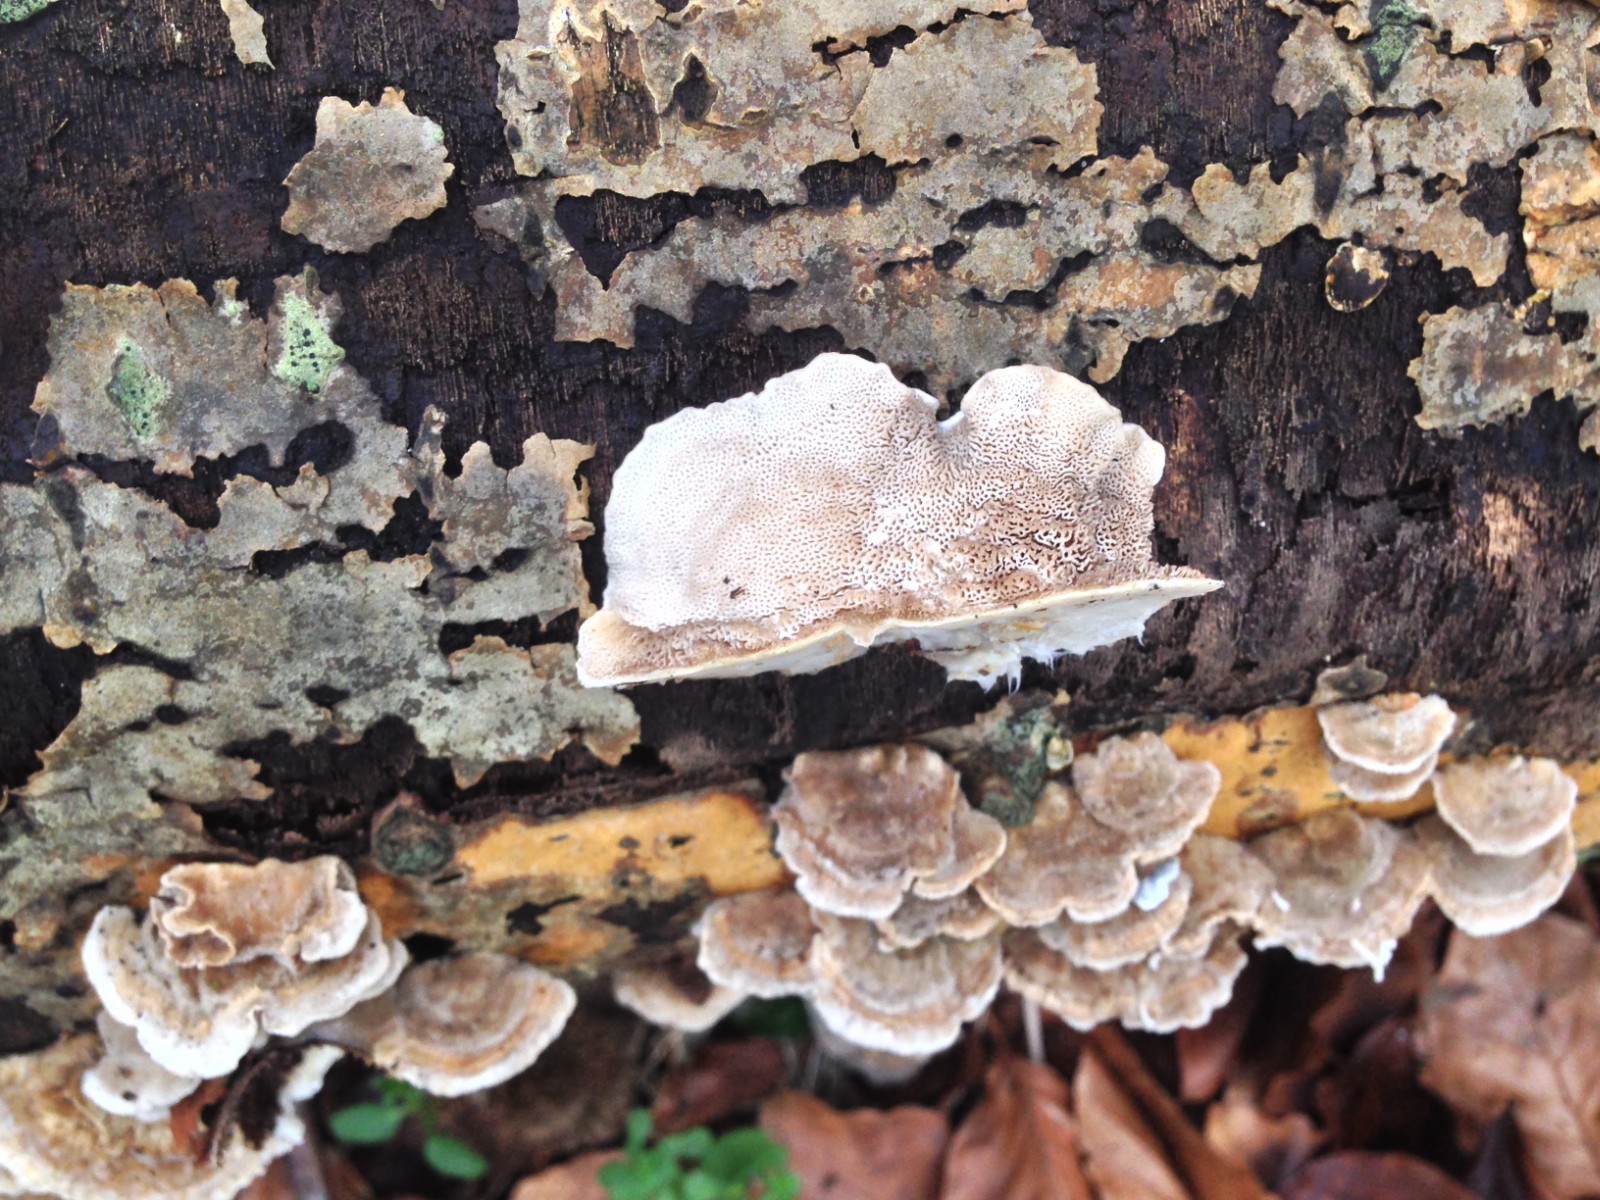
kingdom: Fungi
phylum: Basidiomycota
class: Agaricomycetes
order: Polyporales
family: Polyporaceae
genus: Trametes
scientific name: Trametes
